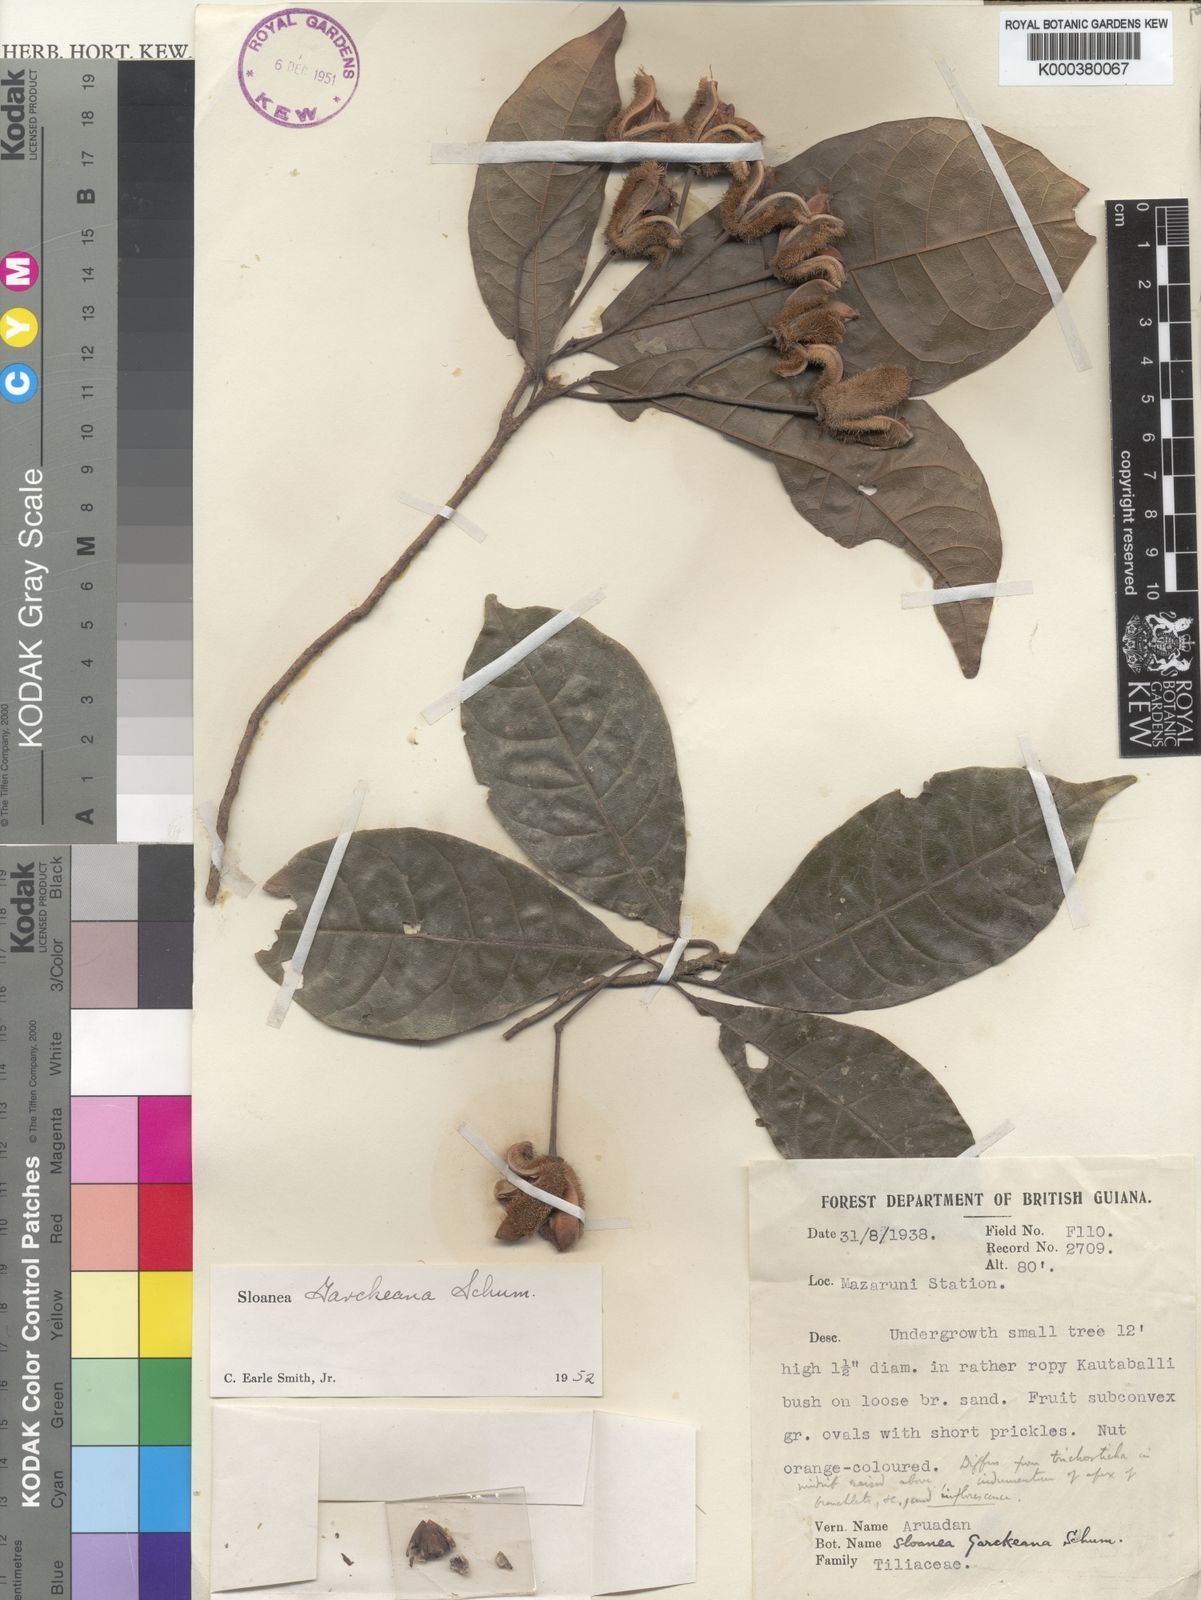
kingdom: Plantae
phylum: Tracheophyta
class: Magnoliopsida
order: Oxalidales
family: Elaeocarpaceae
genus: Sloanea
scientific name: Sloanea garckeana
